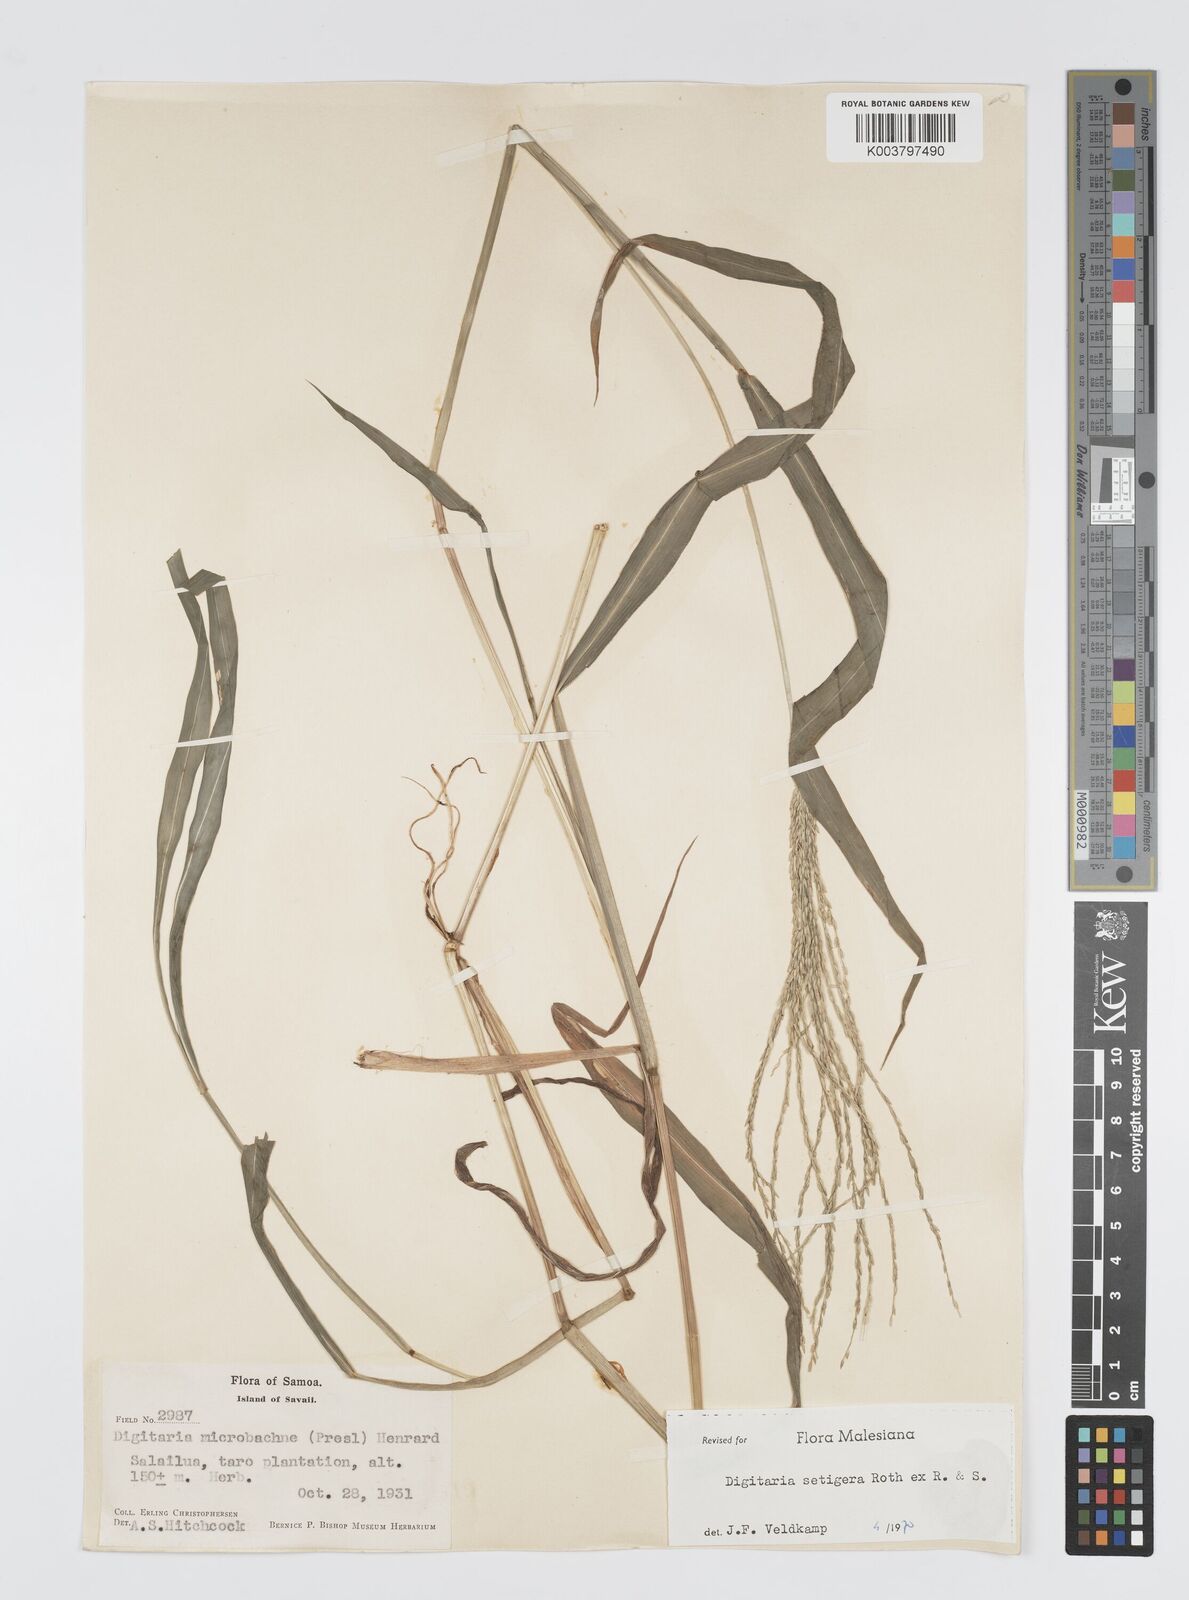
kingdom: Plantae
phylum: Tracheophyta
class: Liliopsida
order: Poales
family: Poaceae
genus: Digitaria
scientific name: Digitaria setigera
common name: East indian crabgrass
